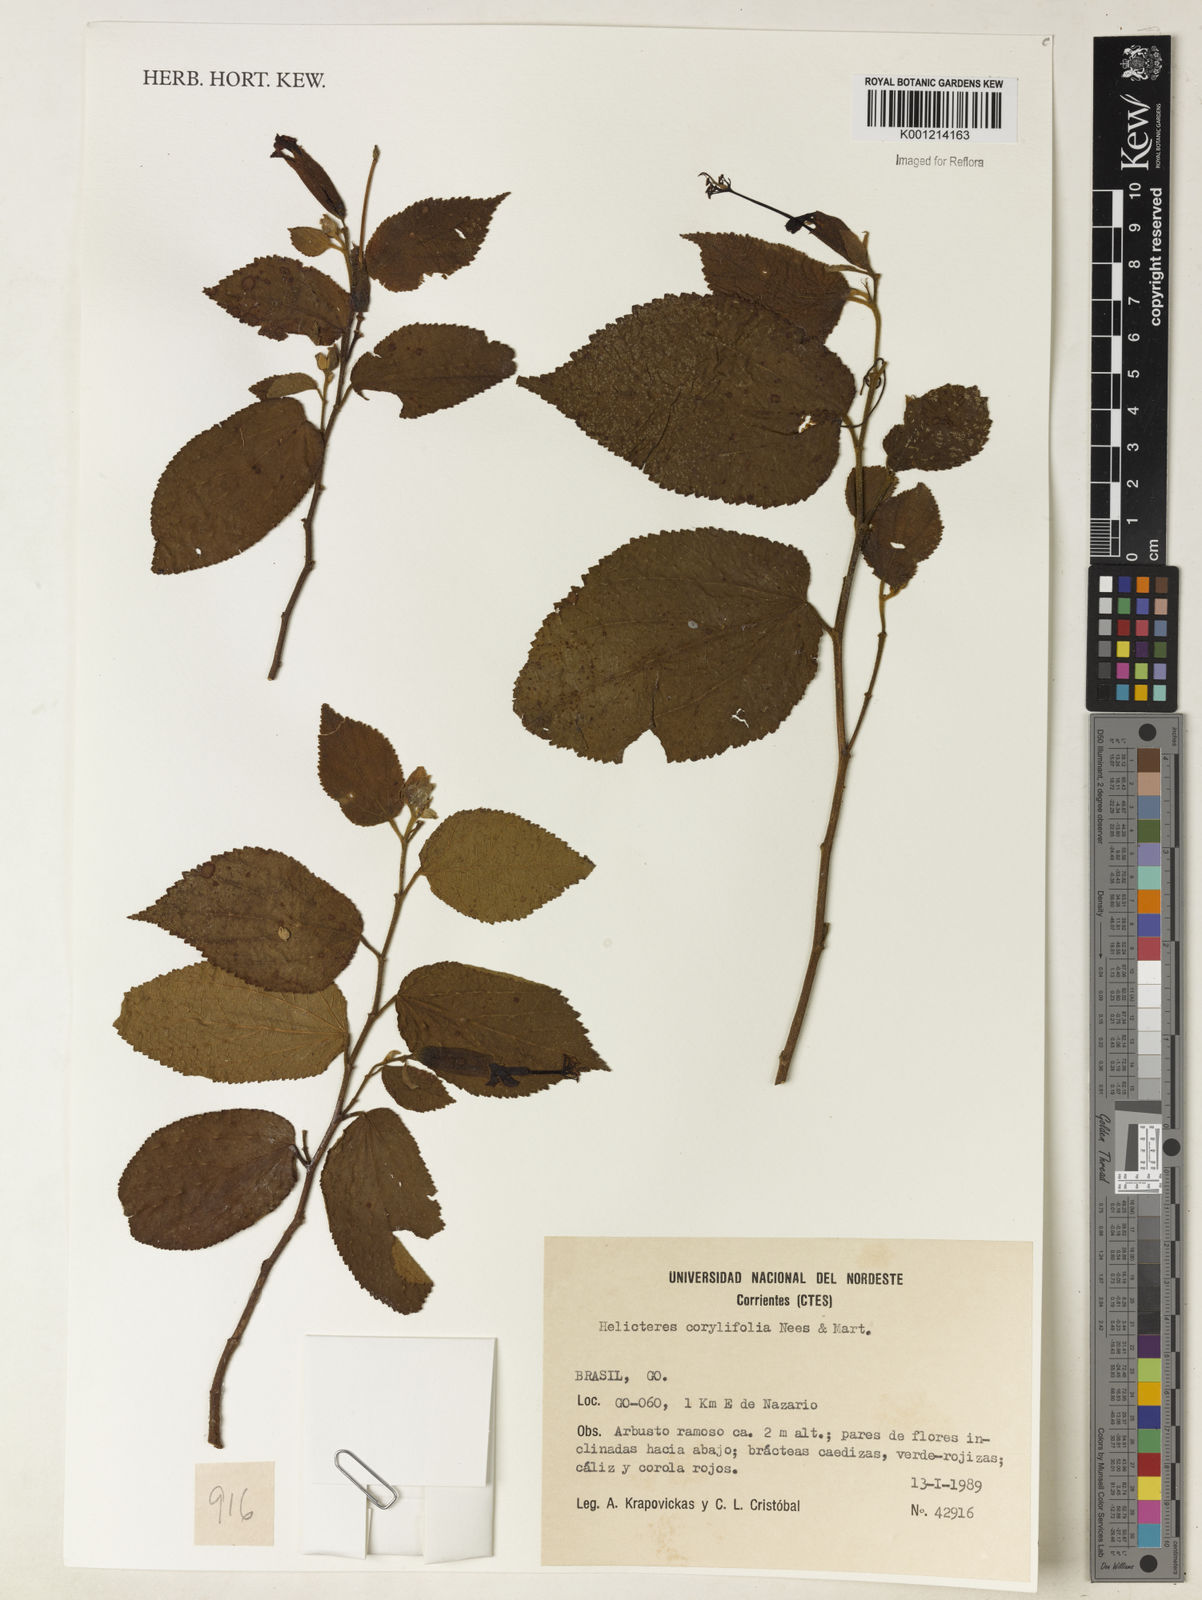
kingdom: Plantae
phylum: Tracheophyta
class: Magnoliopsida
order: Malvales
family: Malvaceae
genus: Helicteres
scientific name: Helicteres corylifolia
